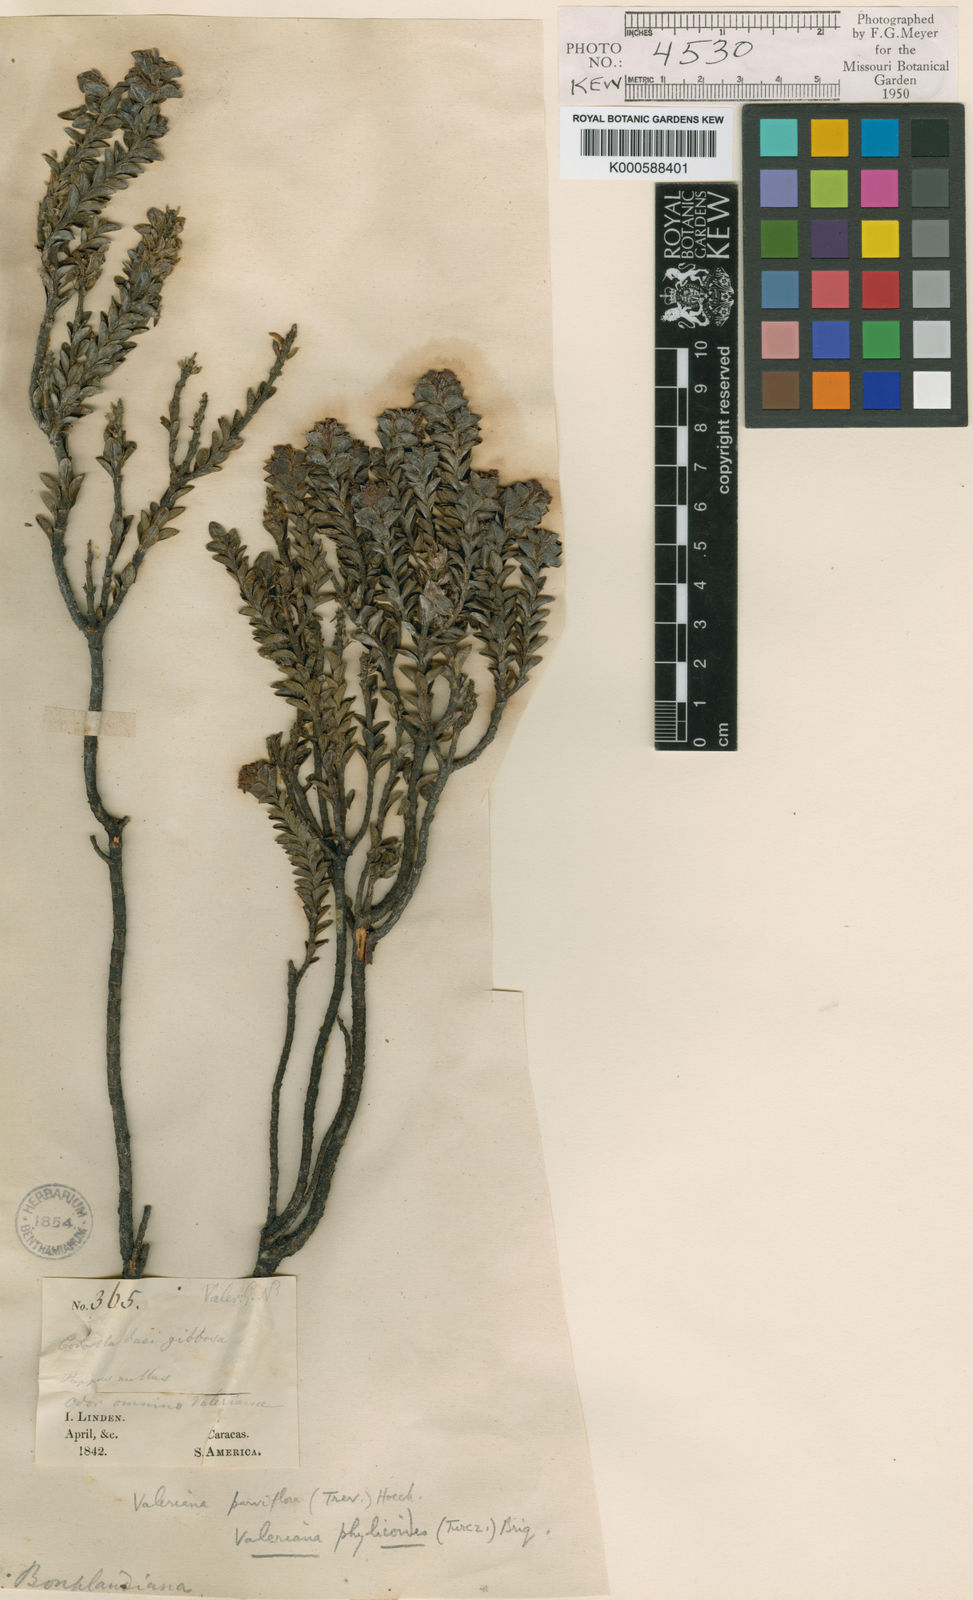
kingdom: Plantae
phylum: Tracheophyta
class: Magnoliopsida
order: Dipsacales
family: Caprifoliaceae
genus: Valeriana
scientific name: Valeriana phylicoides
